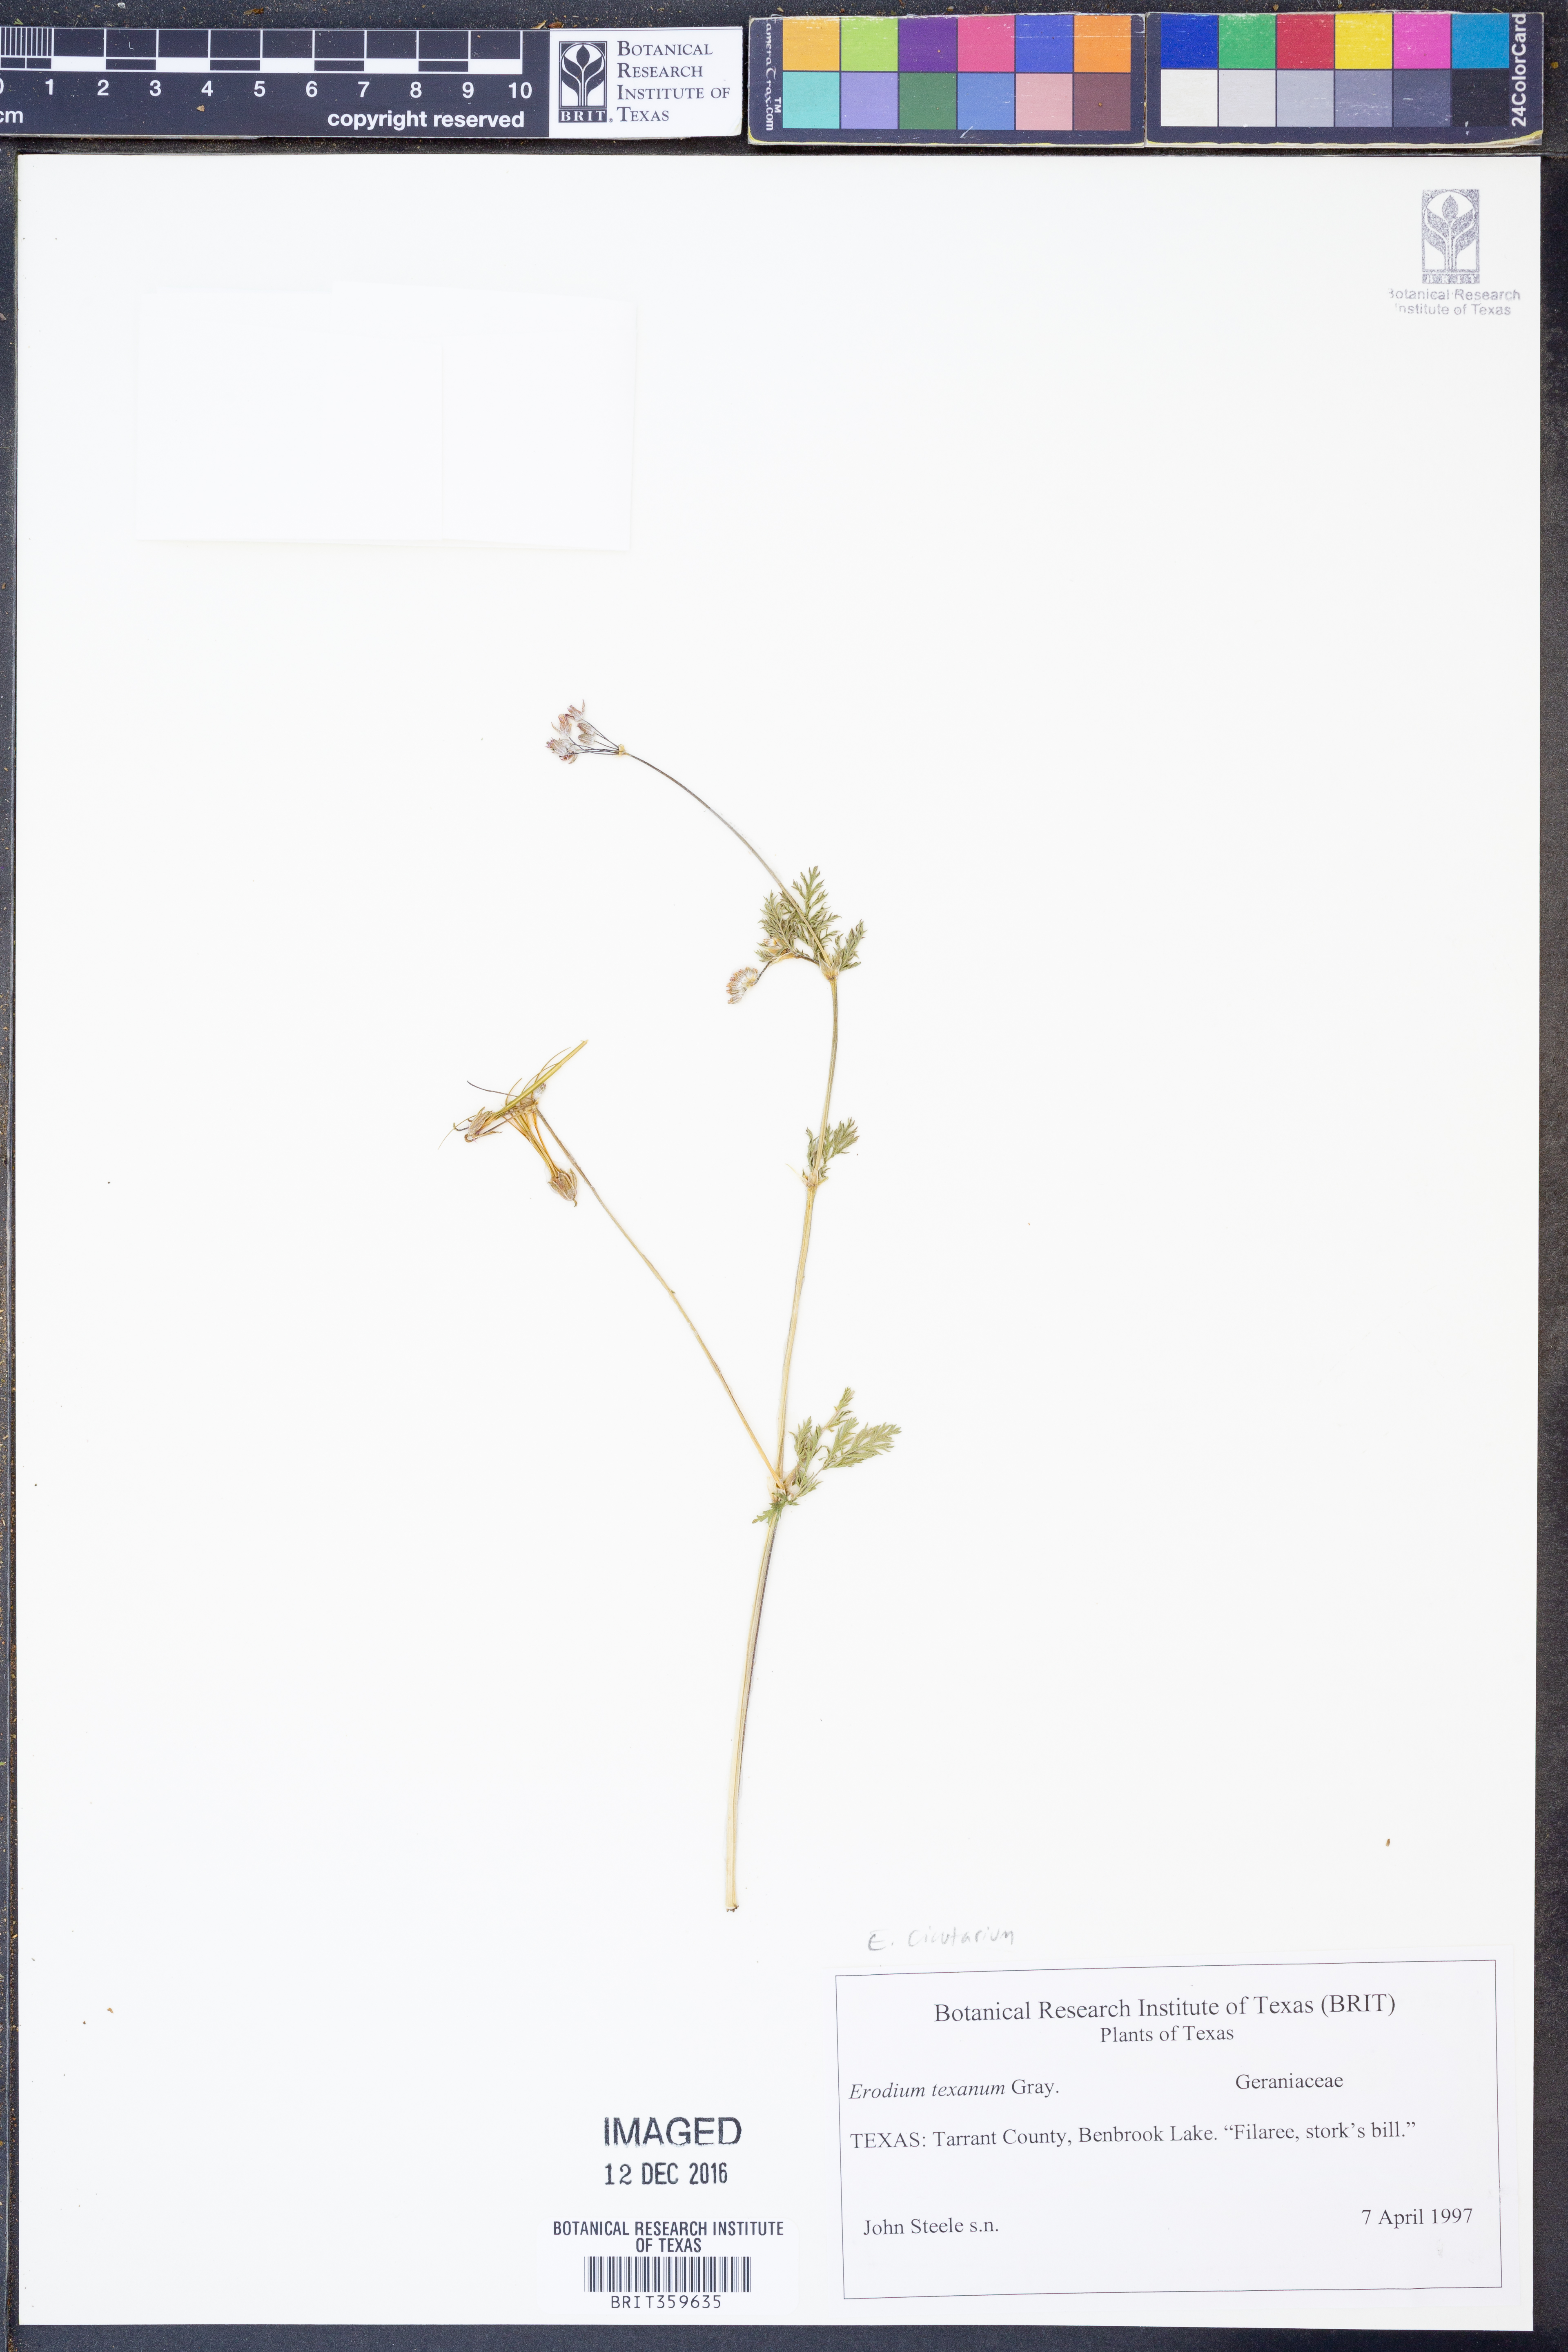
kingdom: Plantae
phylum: Tracheophyta
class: Magnoliopsida
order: Geraniales
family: Geraniaceae
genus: Erodium
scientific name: Erodium cicutarium
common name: Common stork's-bill
